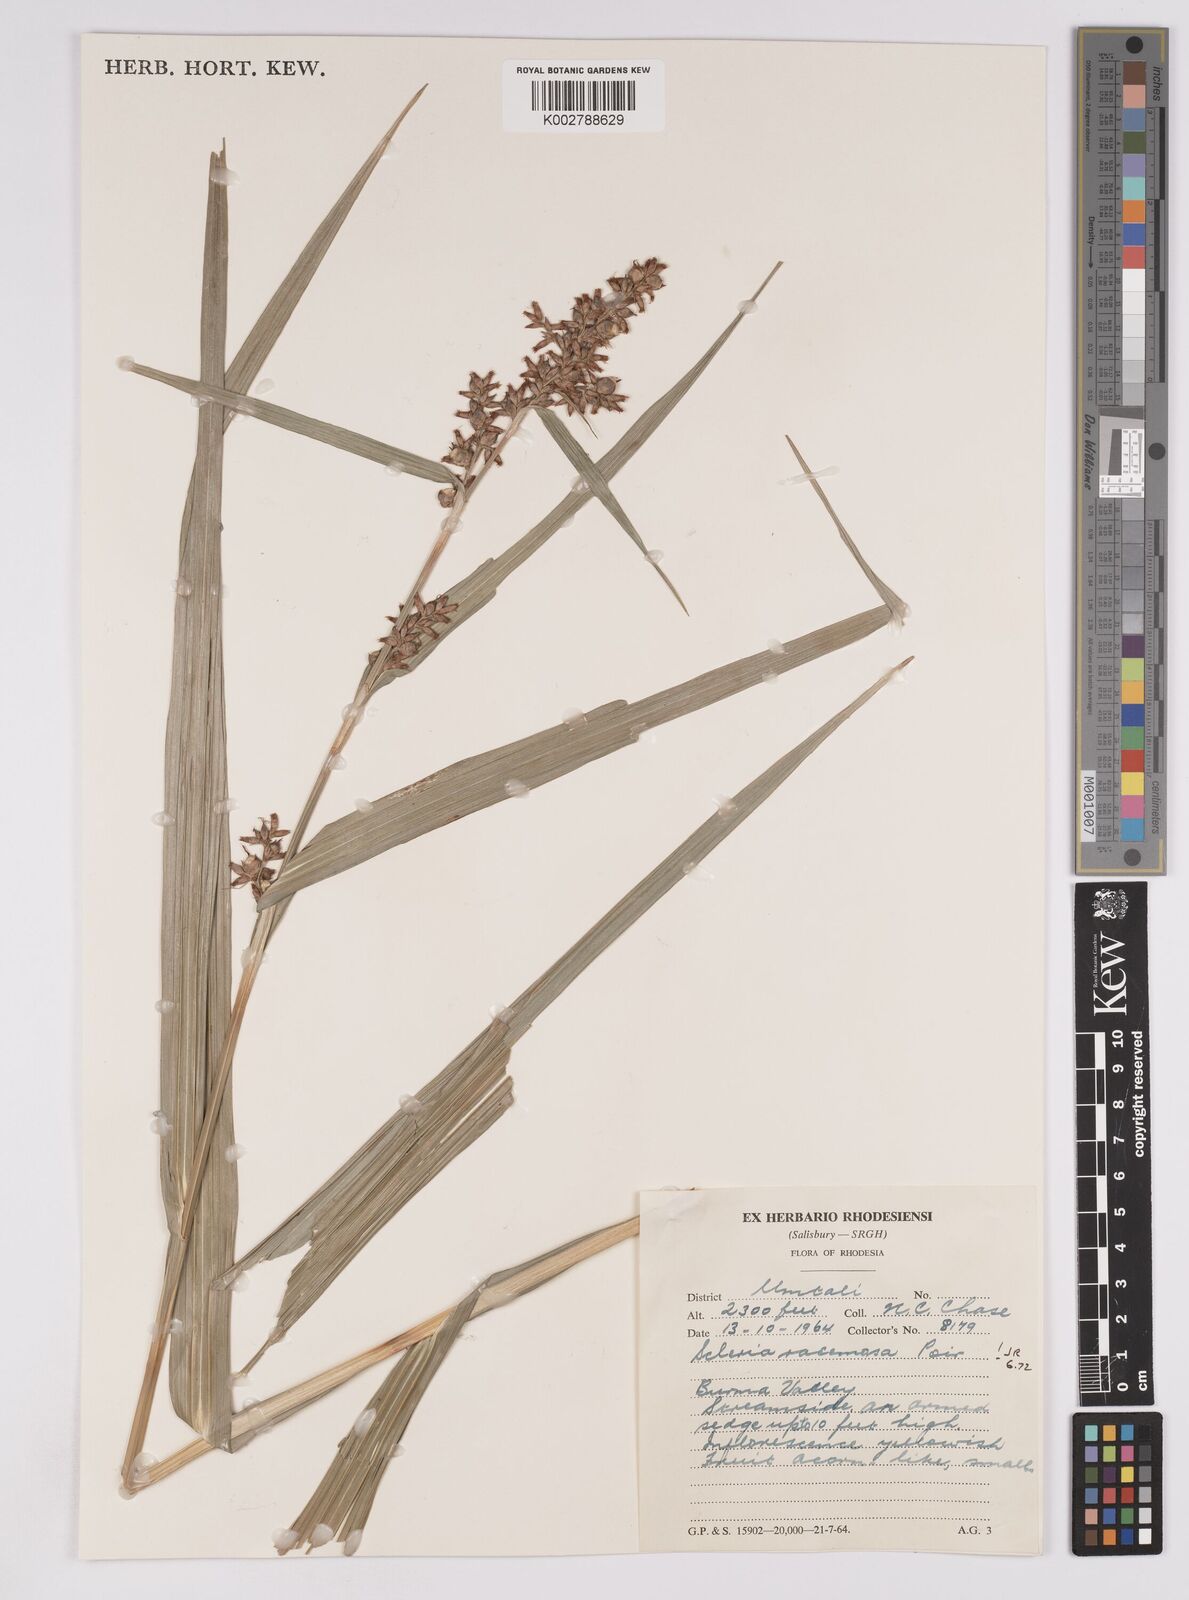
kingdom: Plantae
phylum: Tracheophyta
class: Liliopsida
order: Poales
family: Cyperaceae
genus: Scleria
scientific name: Scleria racemosa
